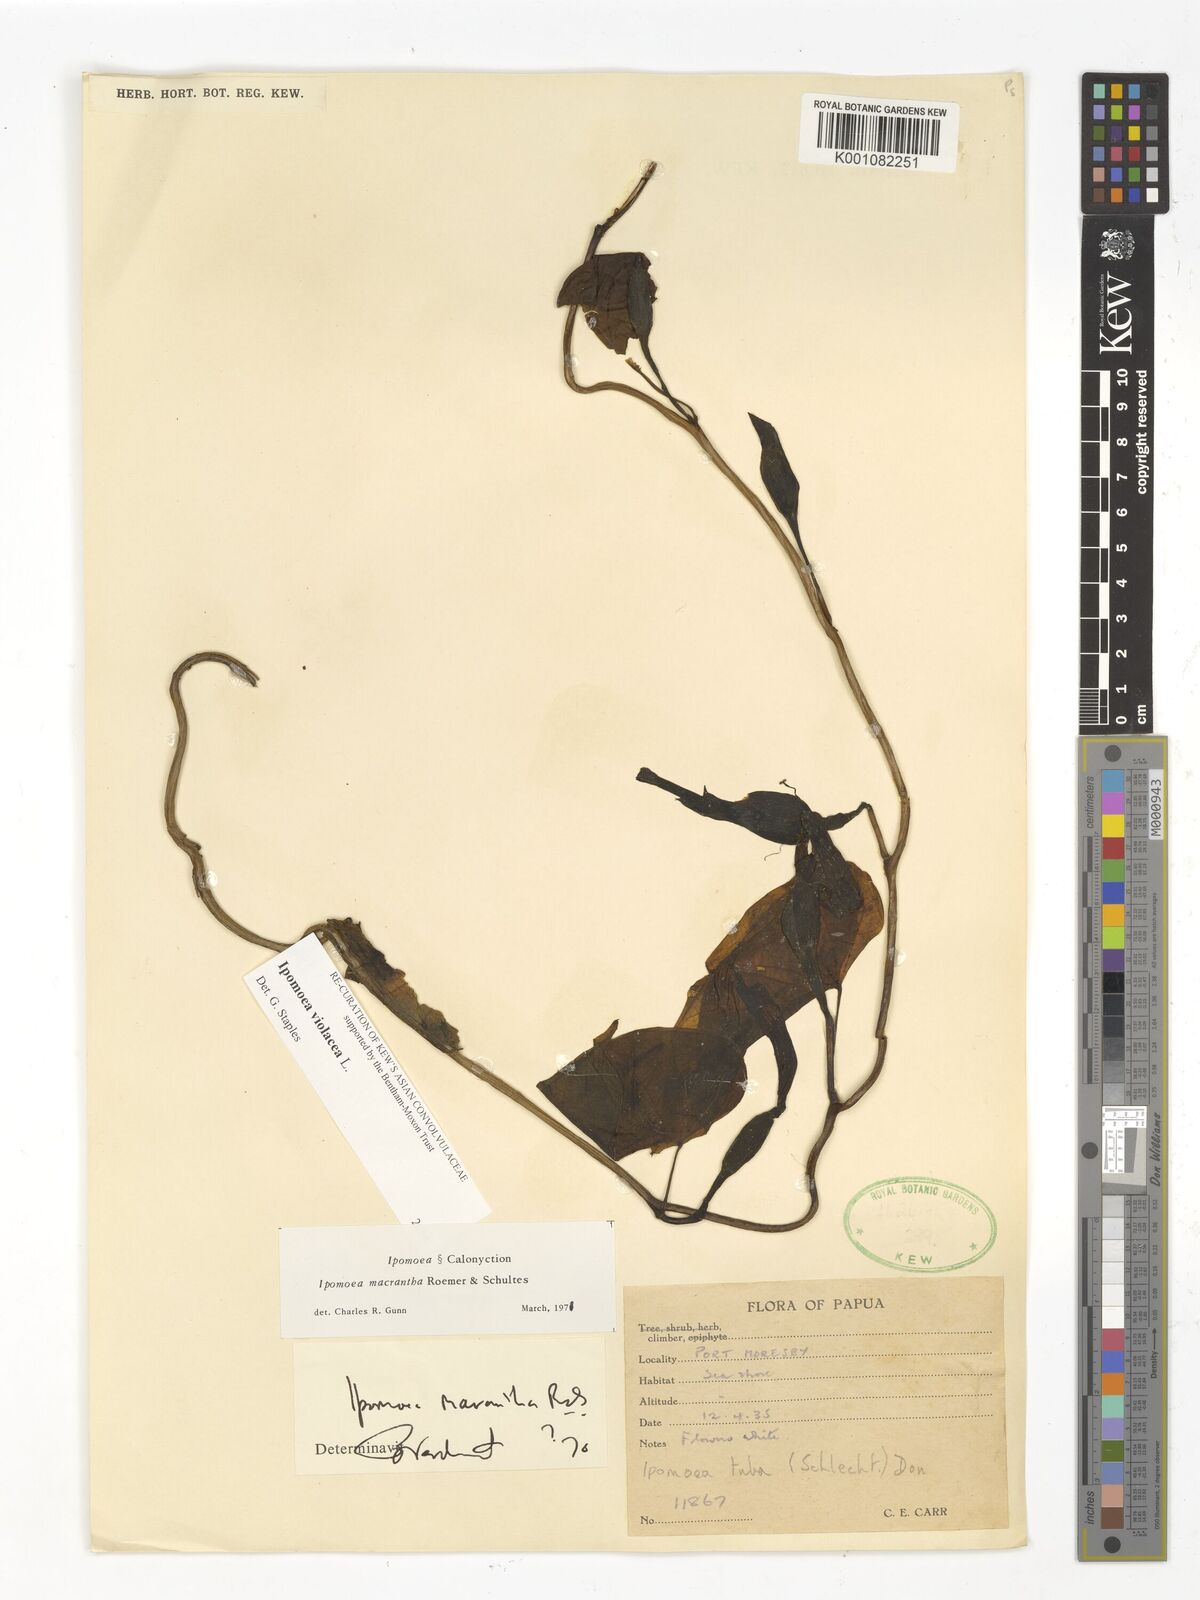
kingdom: Plantae
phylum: Tracheophyta
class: Magnoliopsida
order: Solanales
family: Convolvulaceae
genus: Ipomoea
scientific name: Ipomoea violacea
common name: Beach moonflower
